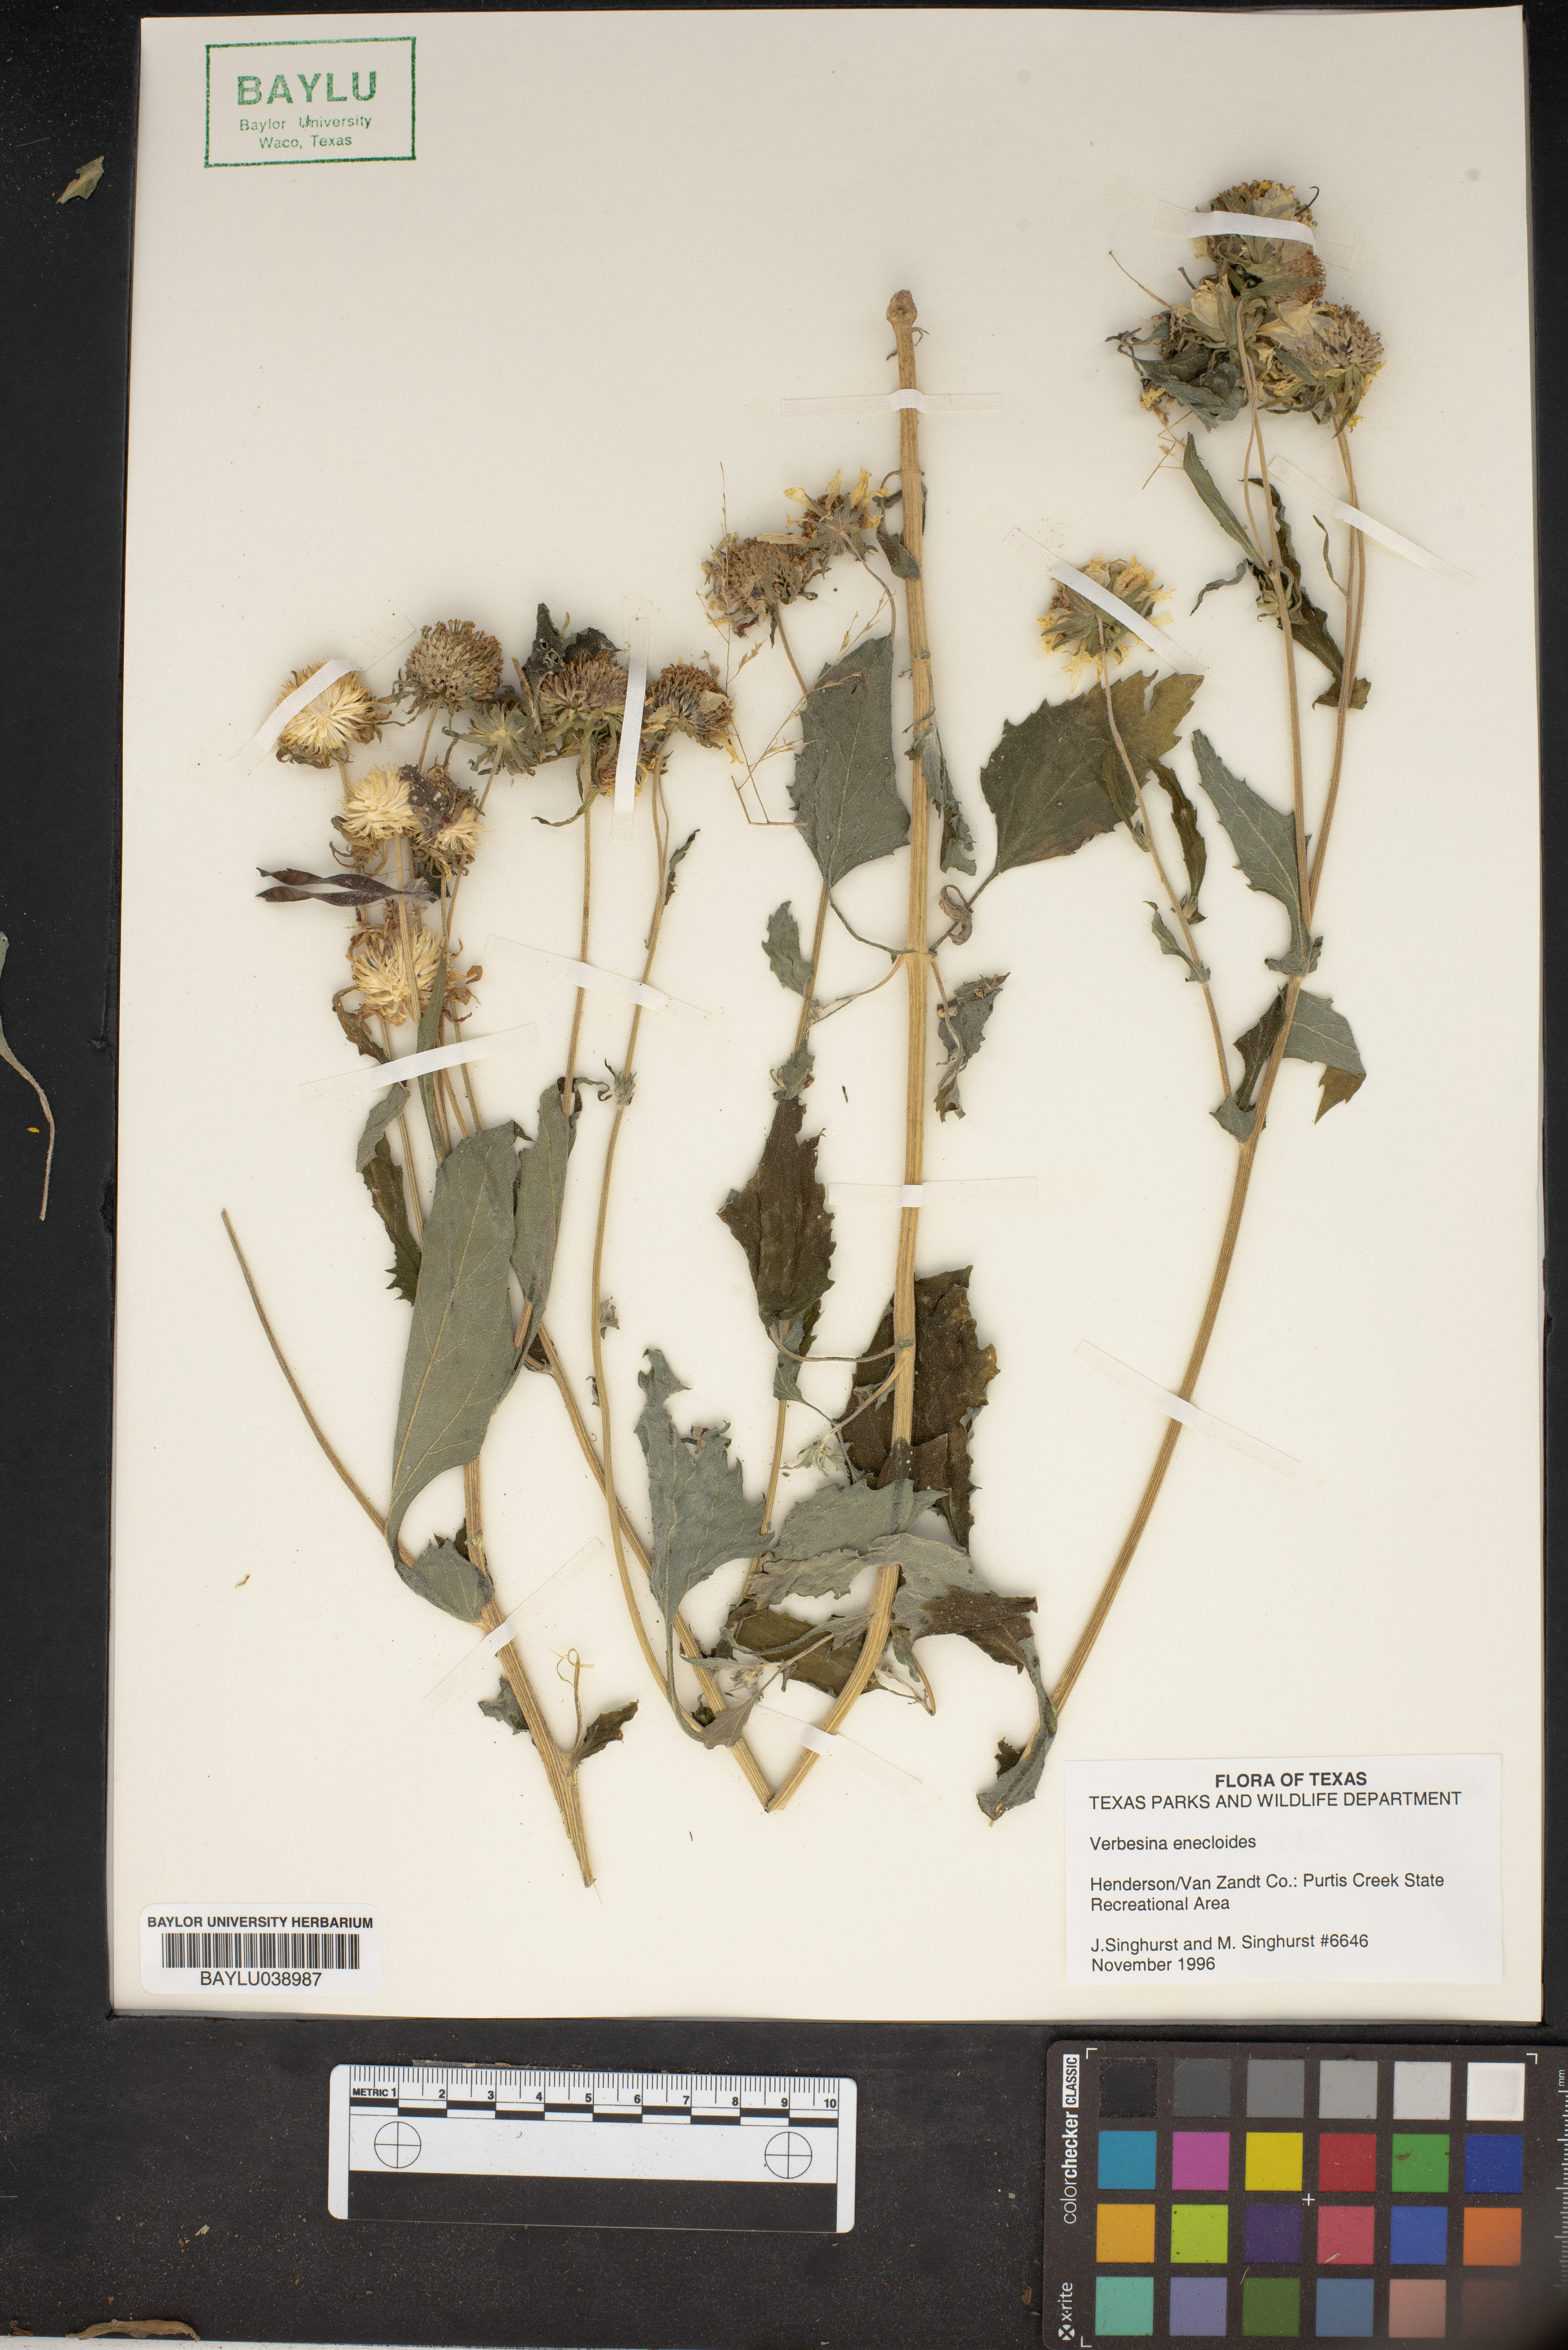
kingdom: Plantae
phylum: Tracheophyta
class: Magnoliopsida
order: Asterales
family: Asteraceae
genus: Verbesina
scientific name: Verbesina encelioides
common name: Golden crownbeard
